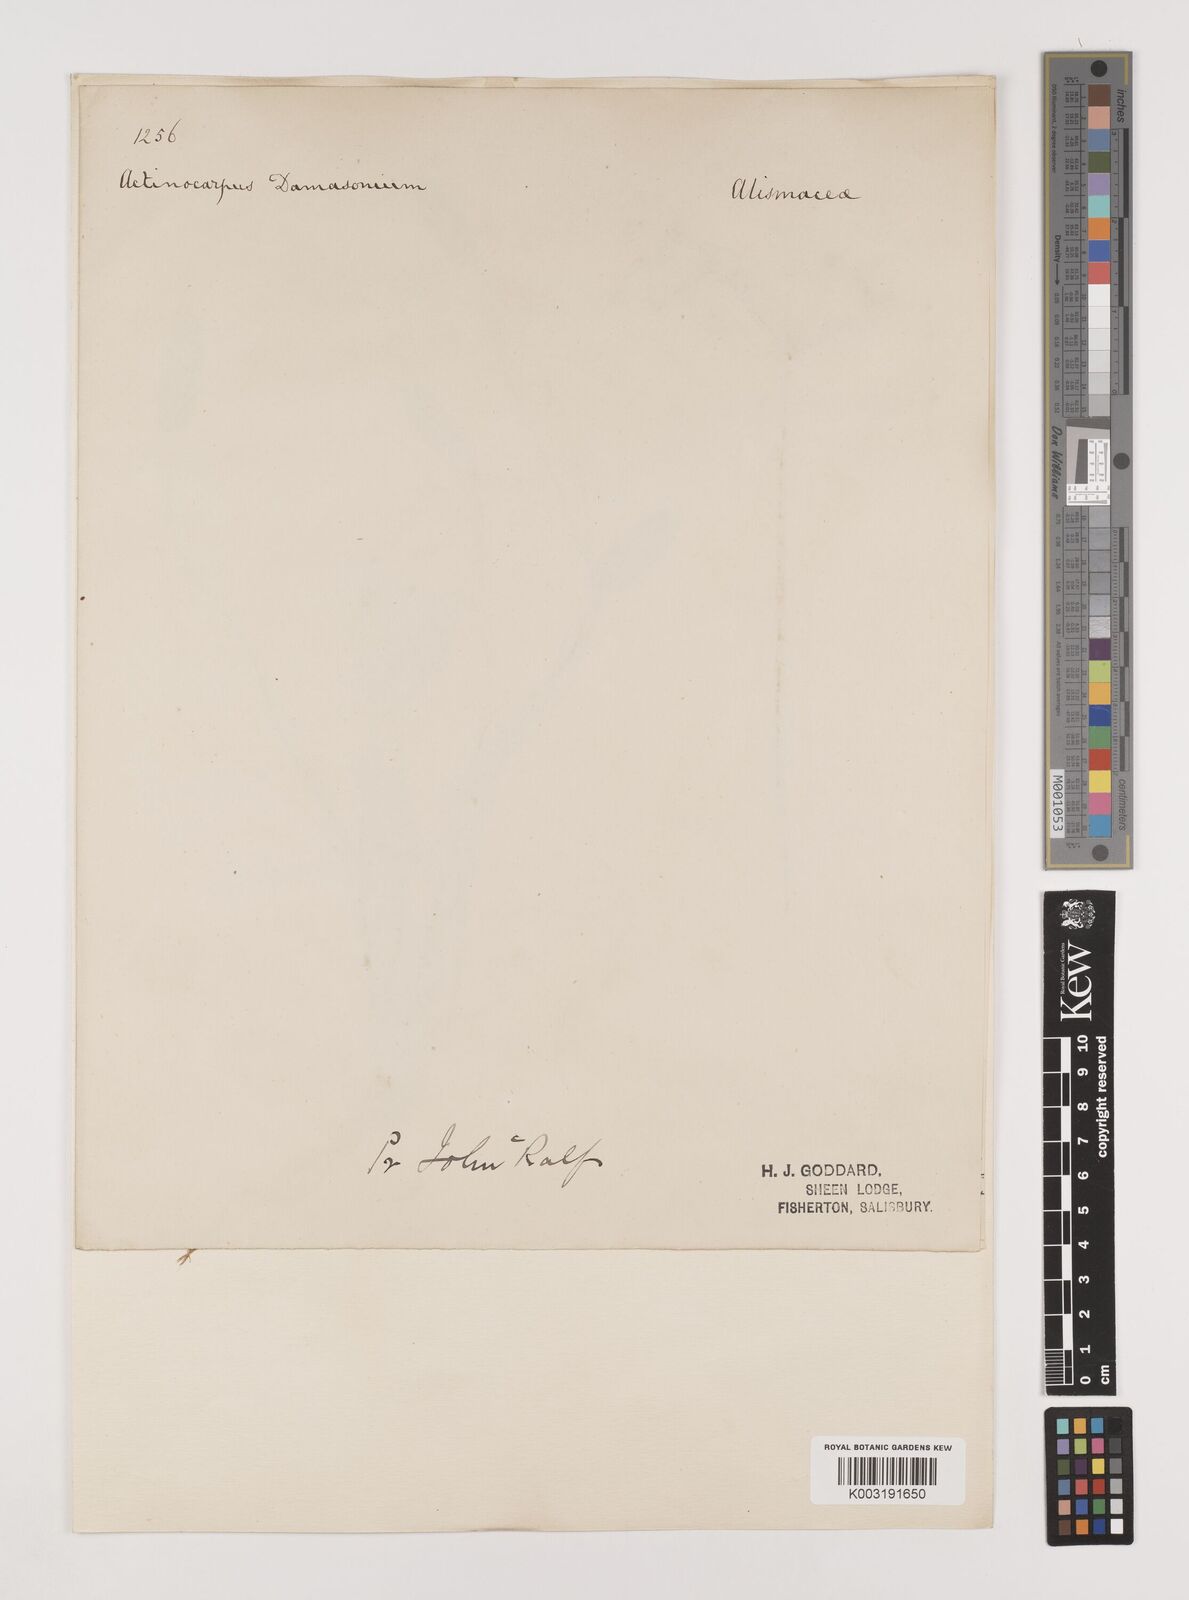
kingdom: Plantae
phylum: Tracheophyta
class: Liliopsida
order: Alismatales
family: Alismataceae
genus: Damasonium
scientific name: Damasonium alisma
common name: Starfruit
